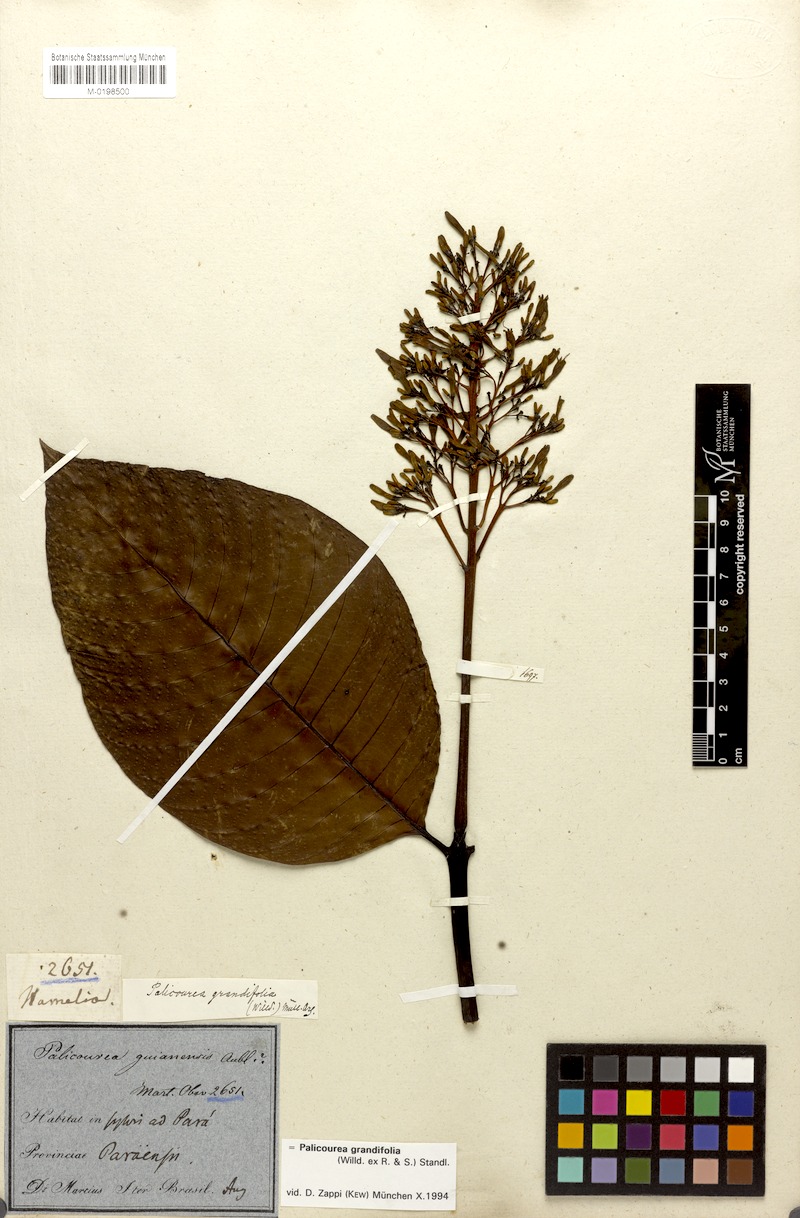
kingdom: Plantae
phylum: Tracheophyta
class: Magnoliopsida
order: Gentianales
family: Rubiaceae
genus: Palicourea
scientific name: Palicourea grandifolia
